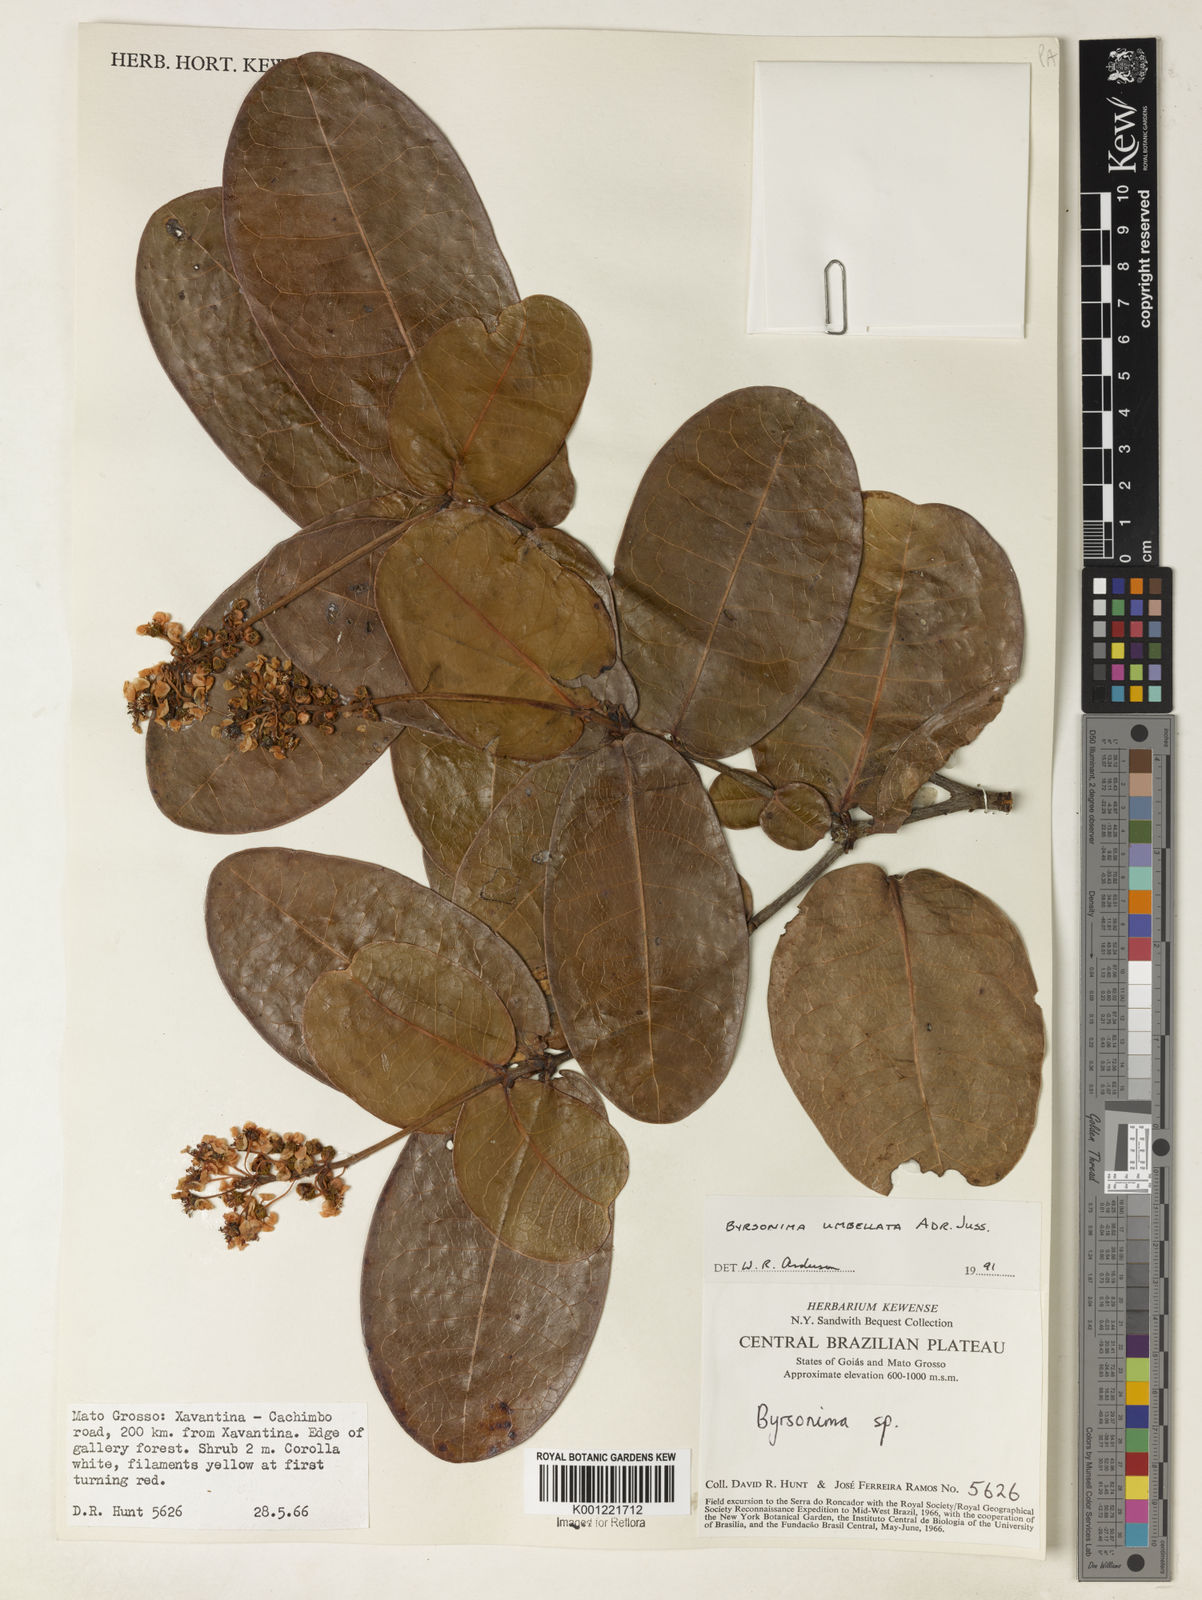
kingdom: Plantae
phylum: Tracheophyta
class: Magnoliopsida
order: Malpighiales
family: Malpighiaceae
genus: Byrsonima
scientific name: Byrsonima umbellata
